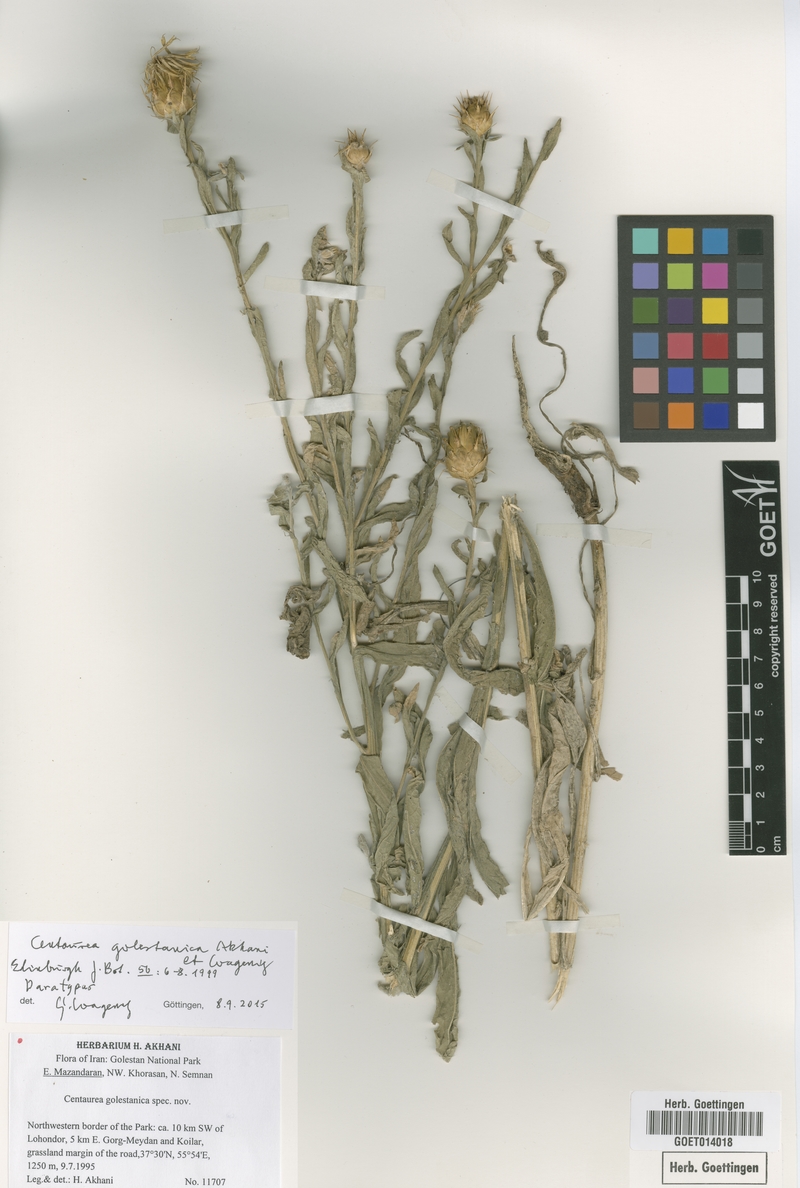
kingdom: Plantae
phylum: Tracheophyta
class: Magnoliopsida
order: Asterales
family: Asteraceae
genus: Centaurea
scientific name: Centaurea golestanica
